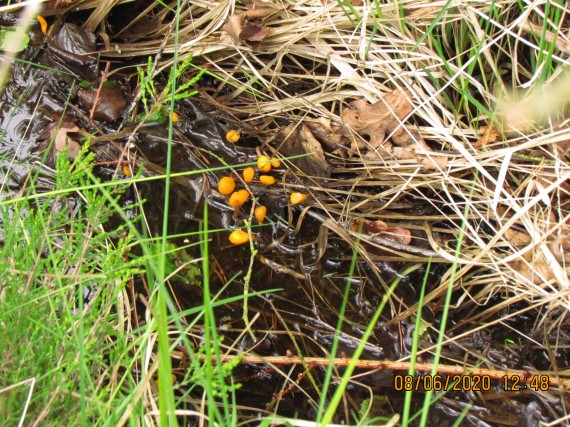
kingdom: Fungi
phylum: Ascomycota
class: Leotiomycetes
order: Helotiales
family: Cenangiaceae
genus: Mitrula
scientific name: Mitrula paludosa
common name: gul nøkketunge
